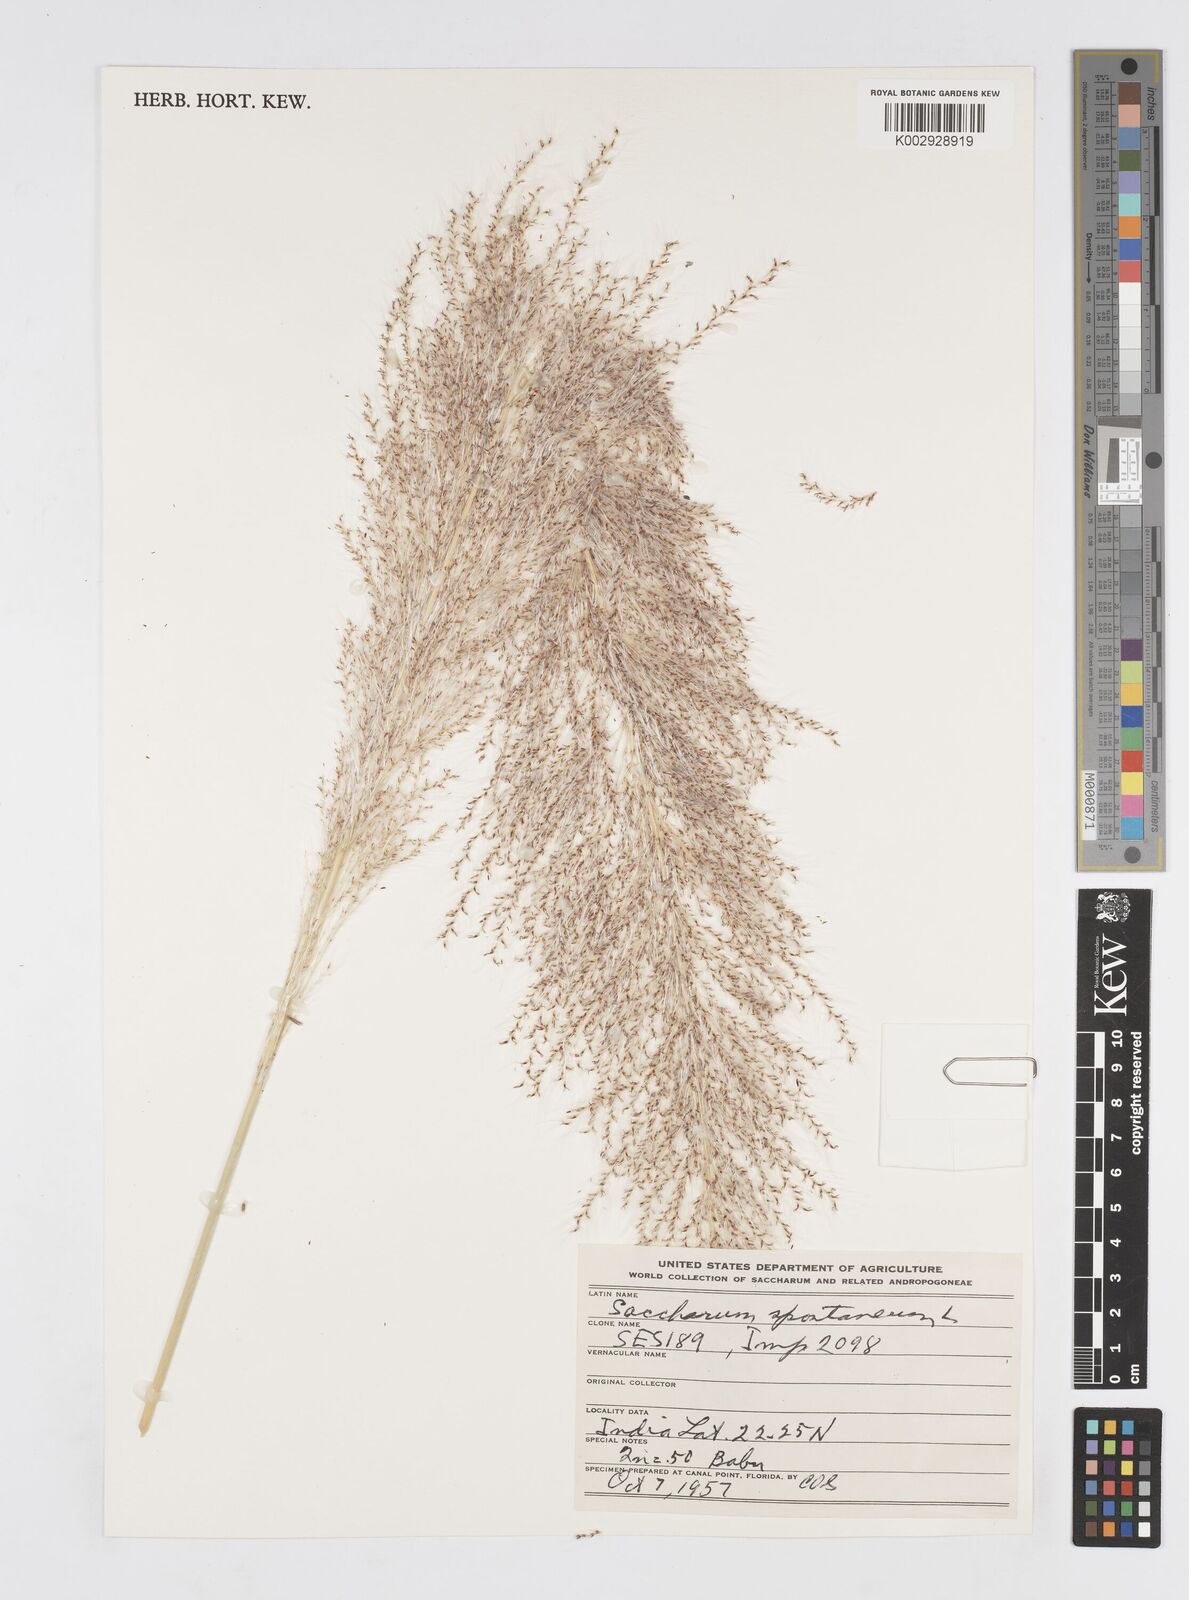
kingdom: Plantae
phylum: Tracheophyta
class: Liliopsida
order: Poales
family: Poaceae
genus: Saccharum
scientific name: Saccharum spontaneum
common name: Wild sugarcane
